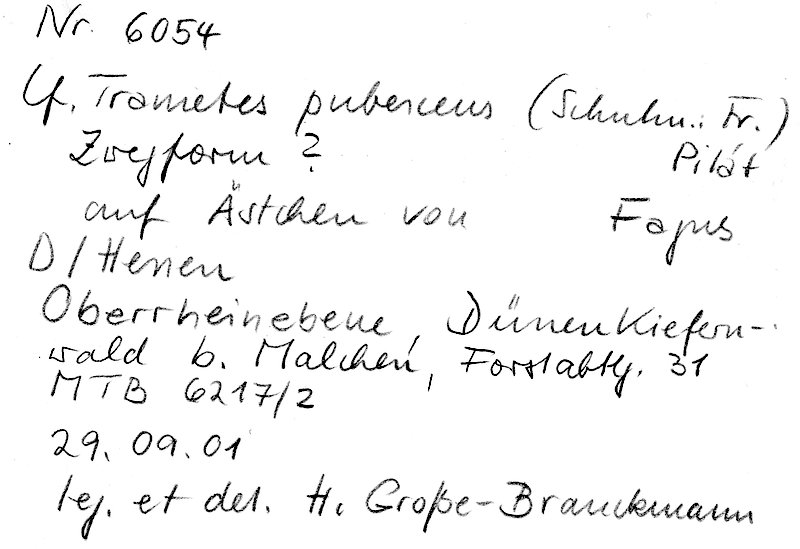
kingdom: Plantae
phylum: Tracheophyta
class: Magnoliopsida
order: Fagales
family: Fagaceae
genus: Fagus
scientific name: Fagus sylvatica
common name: Beech
